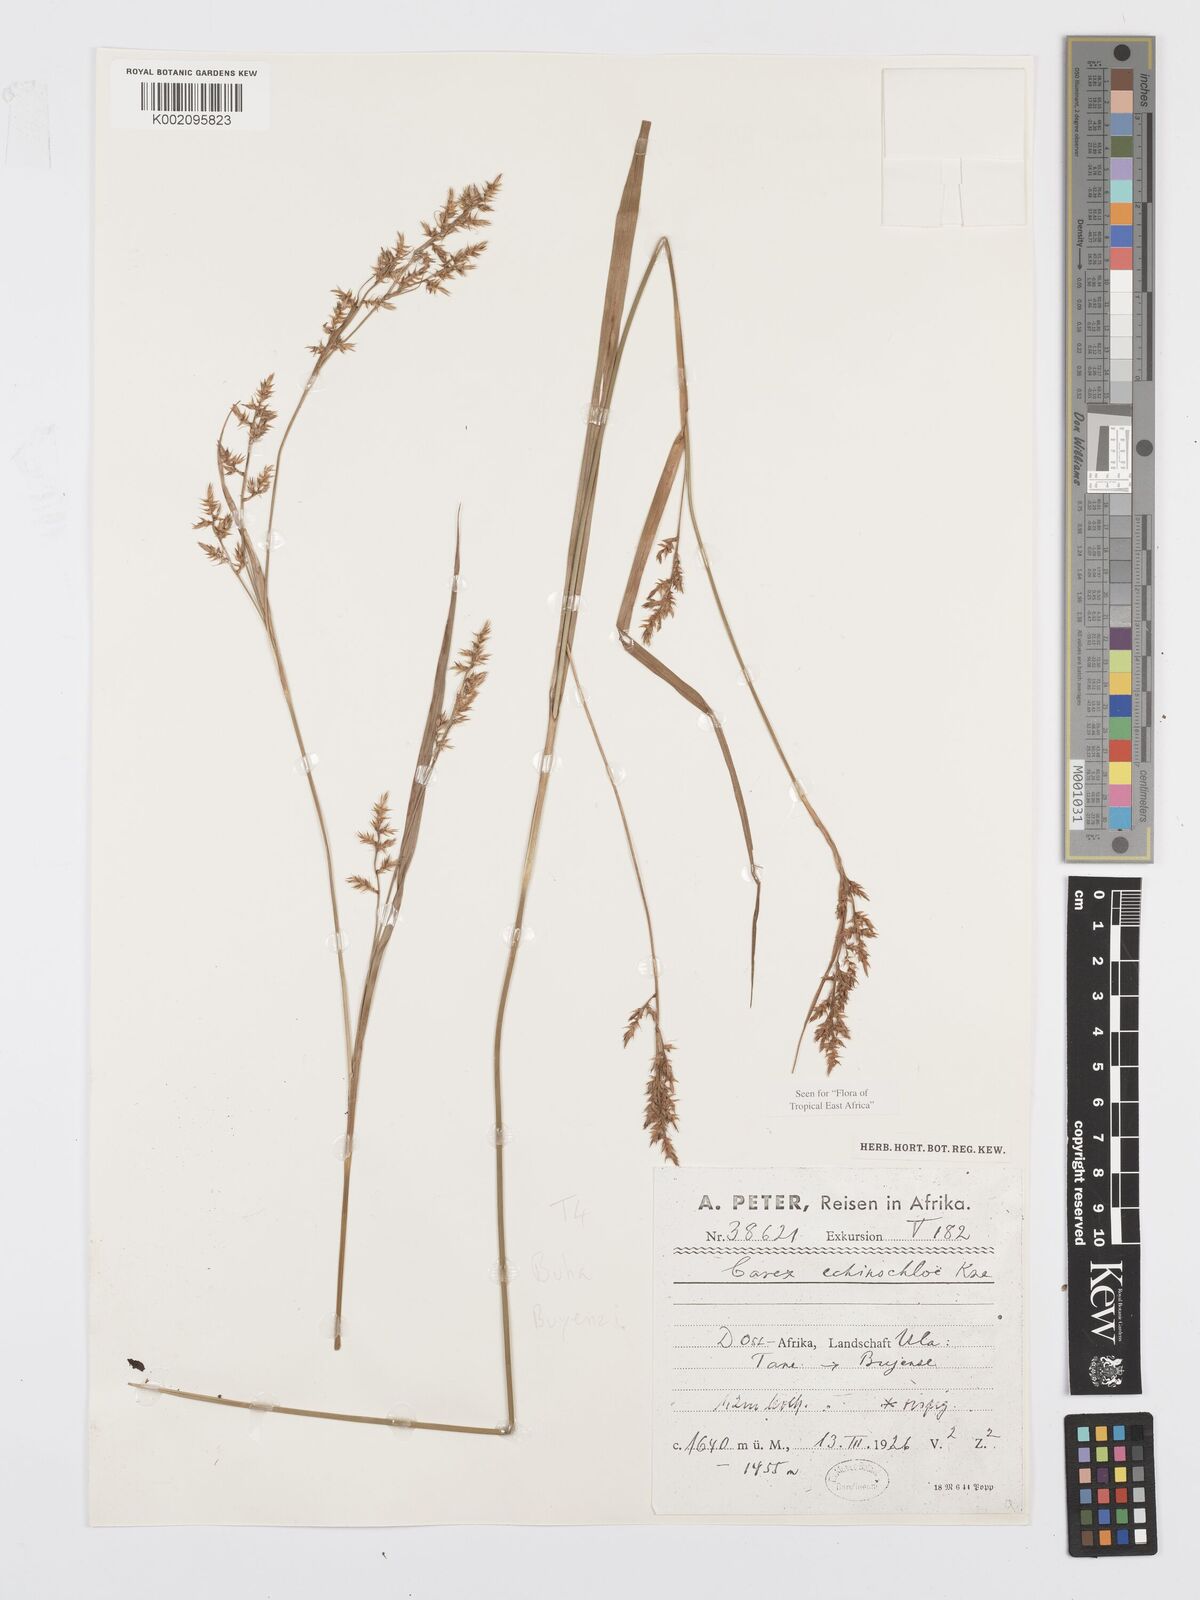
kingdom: Plantae
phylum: Tracheophyta
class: Liliopsida
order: Poales
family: Cyperaceae
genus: Carex
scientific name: Carex
